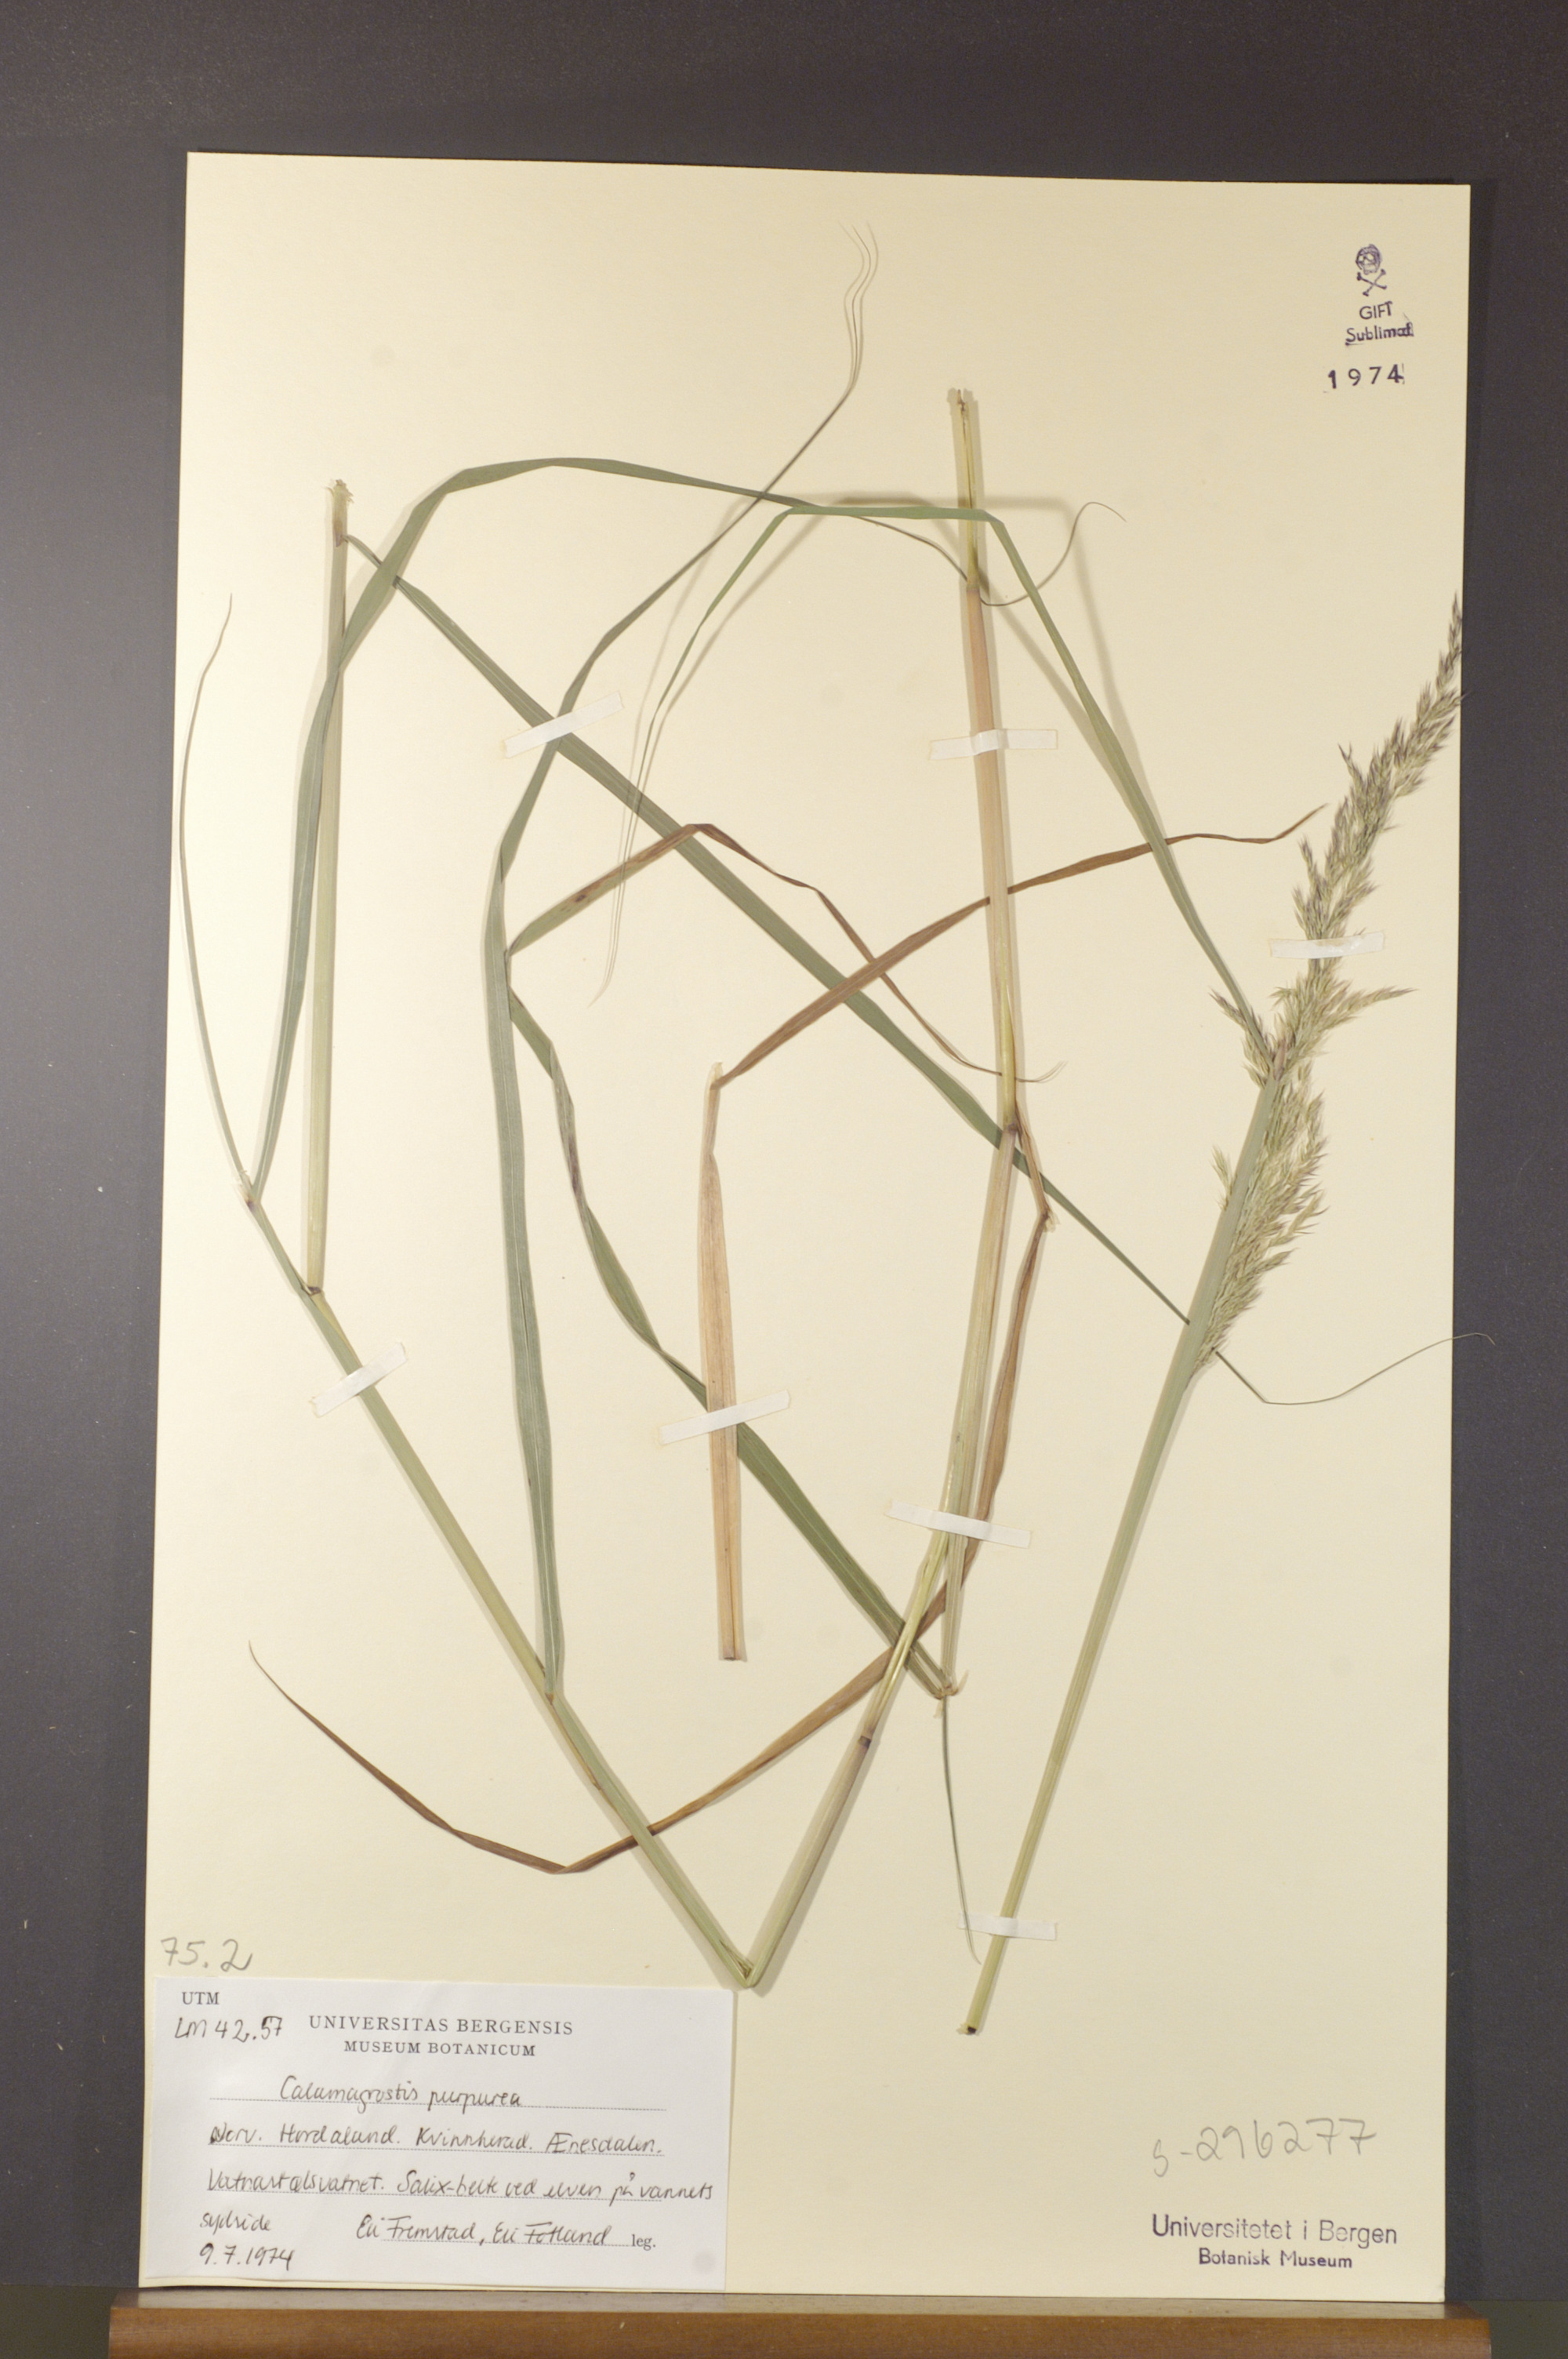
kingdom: Plantae
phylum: Tracheophyta
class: Liliopsida
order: Poales
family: Poaceae
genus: Calamagrostis
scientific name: Calamagrostis purpurea
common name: Scandinavian small-reed
